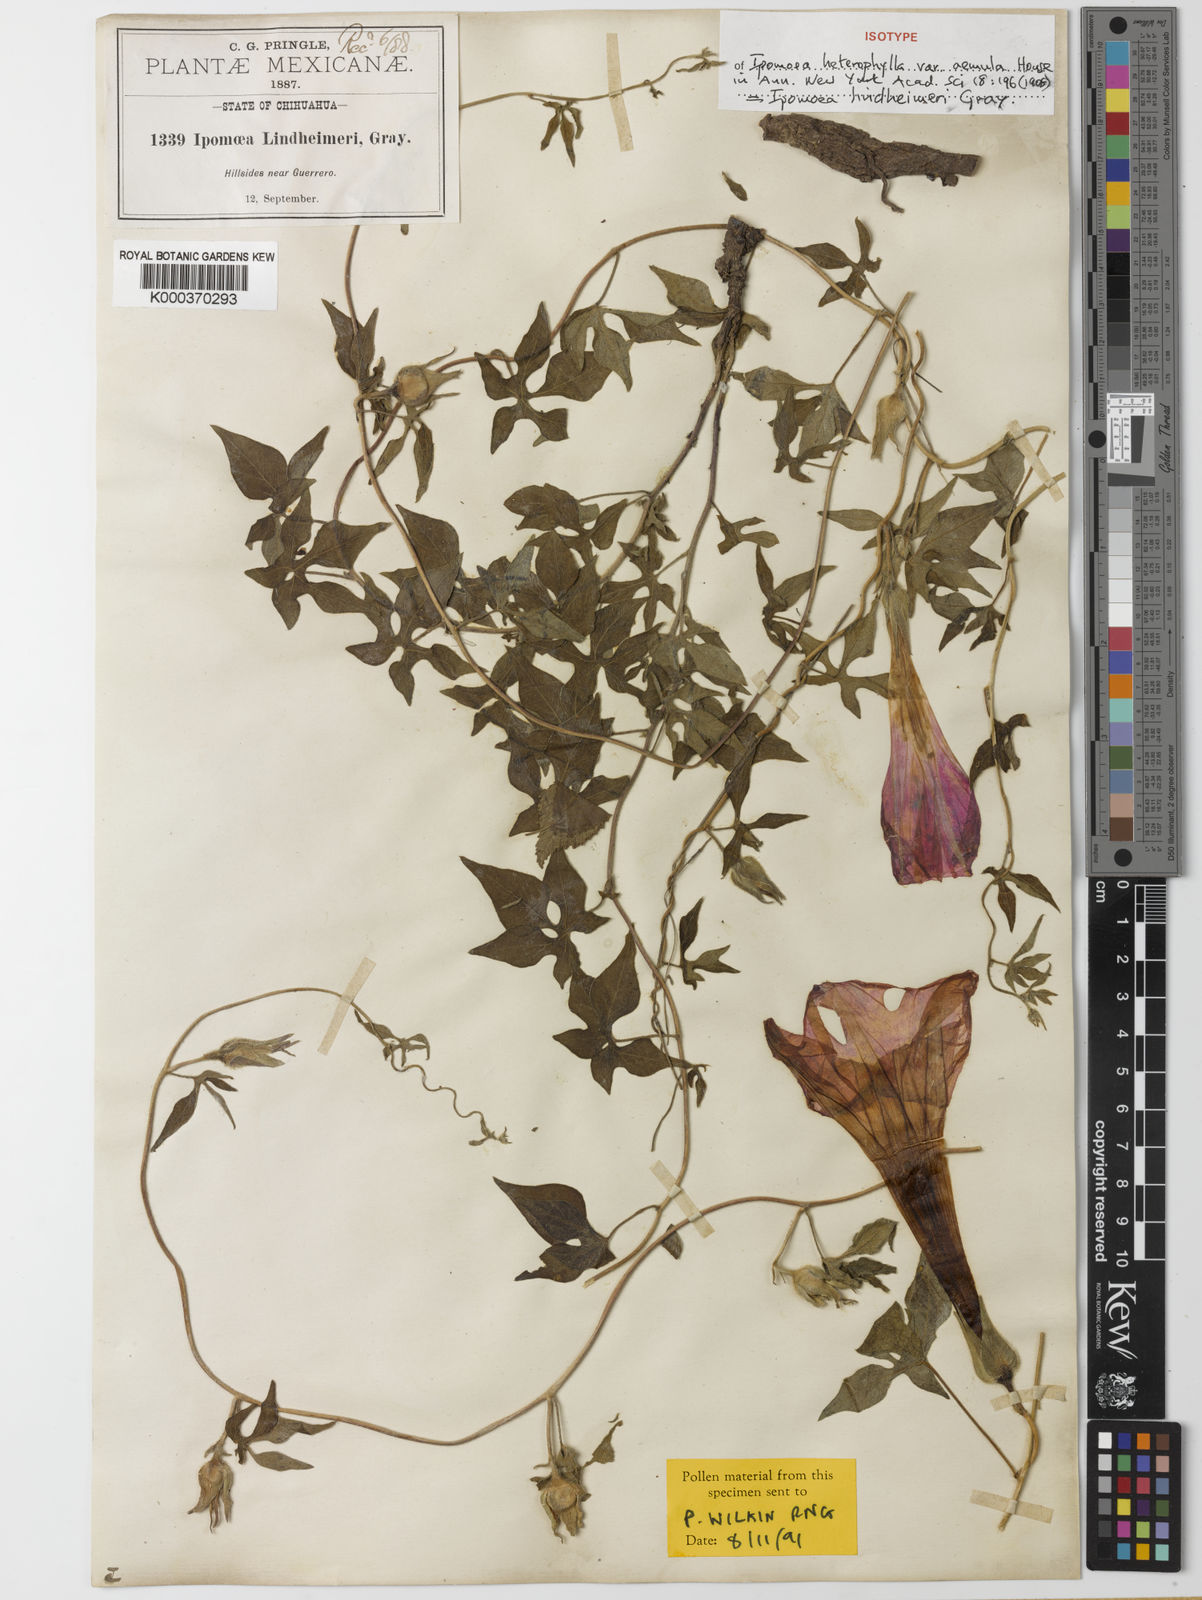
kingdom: Plantae
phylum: Tracheophyta
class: Magnoliopsida
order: Solanales
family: Convolvulaceae
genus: Ipomoea
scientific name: Ipomoea lindheimeri
